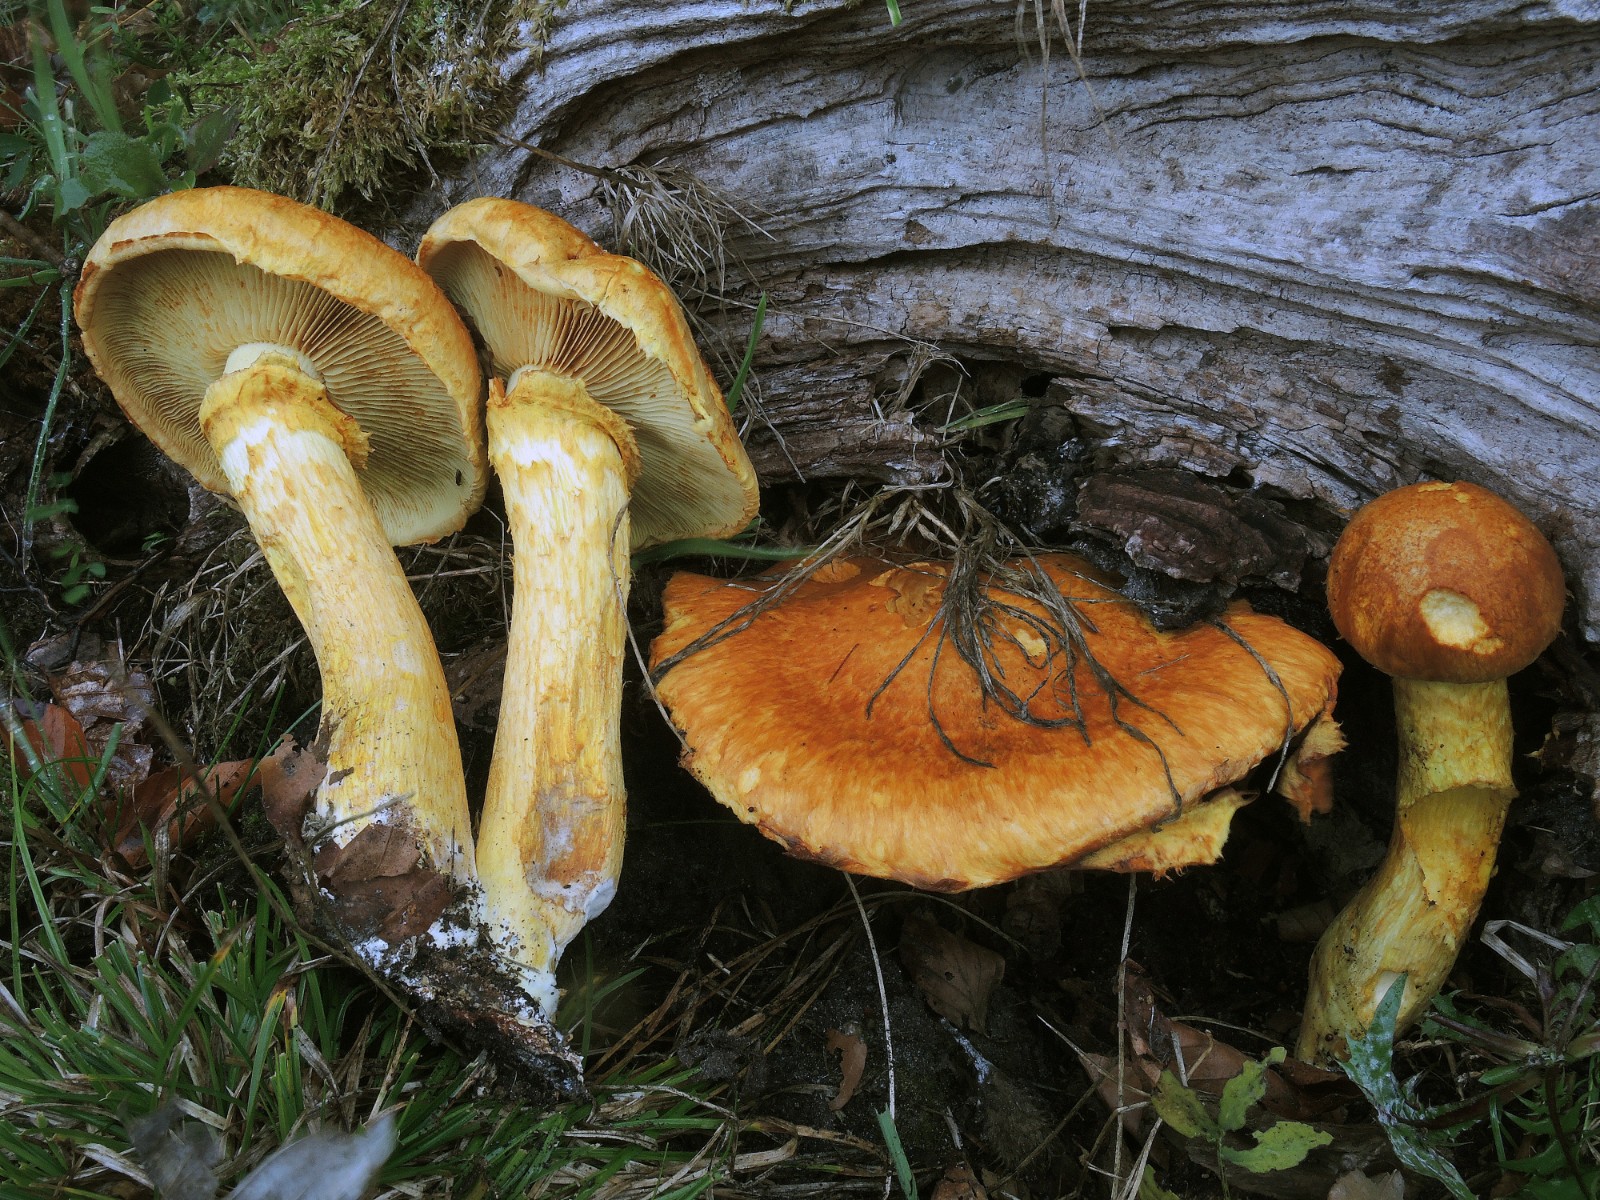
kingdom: Fungi
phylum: Basidiomycota
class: Agaricomycetes
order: Agaricales
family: Hymenogastraceae
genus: Gymnopilus
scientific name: Gymnopilus spectabilis
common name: fibret flammehat
